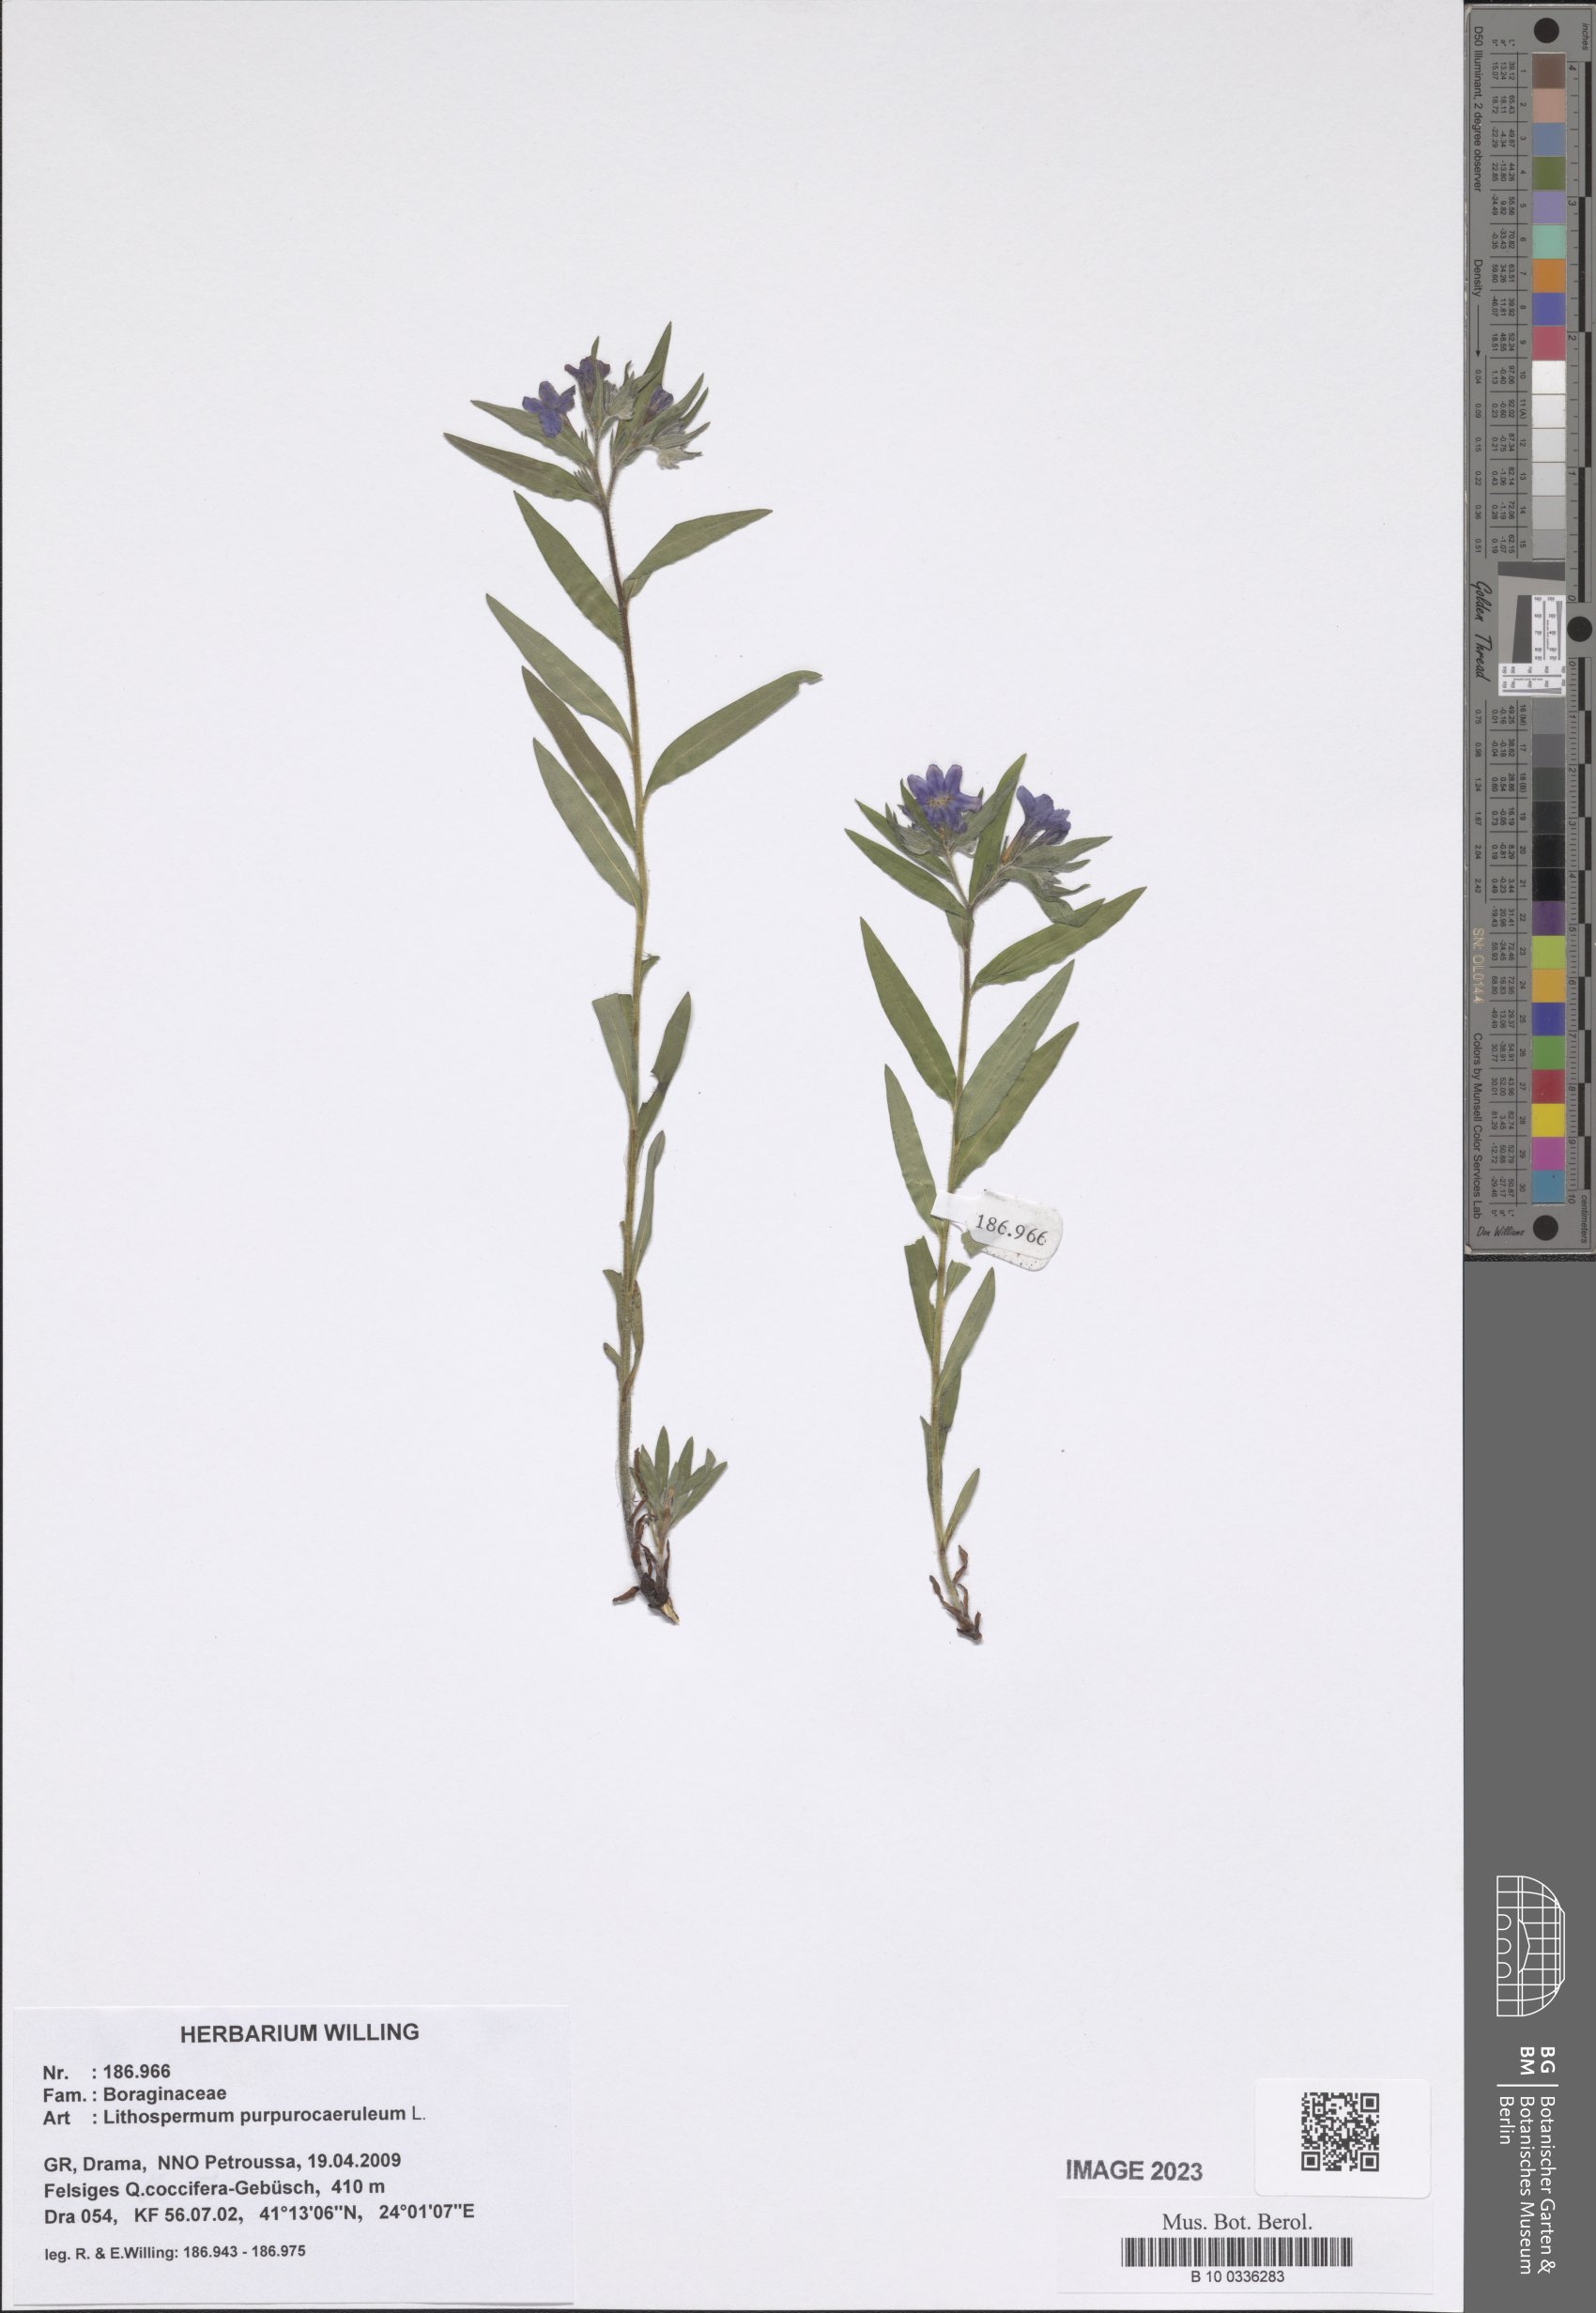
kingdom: Plantae
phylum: Tracheophyta
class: Magnoliopsida
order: Boraginales
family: Boraginaceae
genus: Aegonychon
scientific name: Aegonychon purpurocaeruleum
